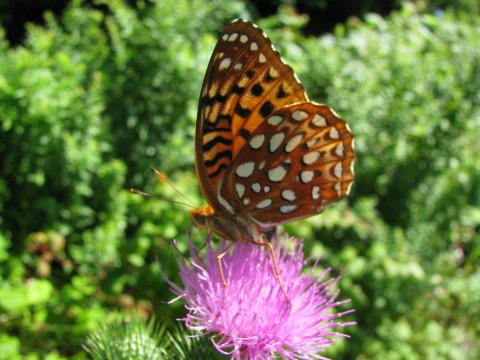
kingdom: Animalia
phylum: Arthropoda
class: Insecta
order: Lepidoptera
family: Nymphalidae
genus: Speyeria
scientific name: Speyeria aphrodite
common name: Aphrodite Fritillary
